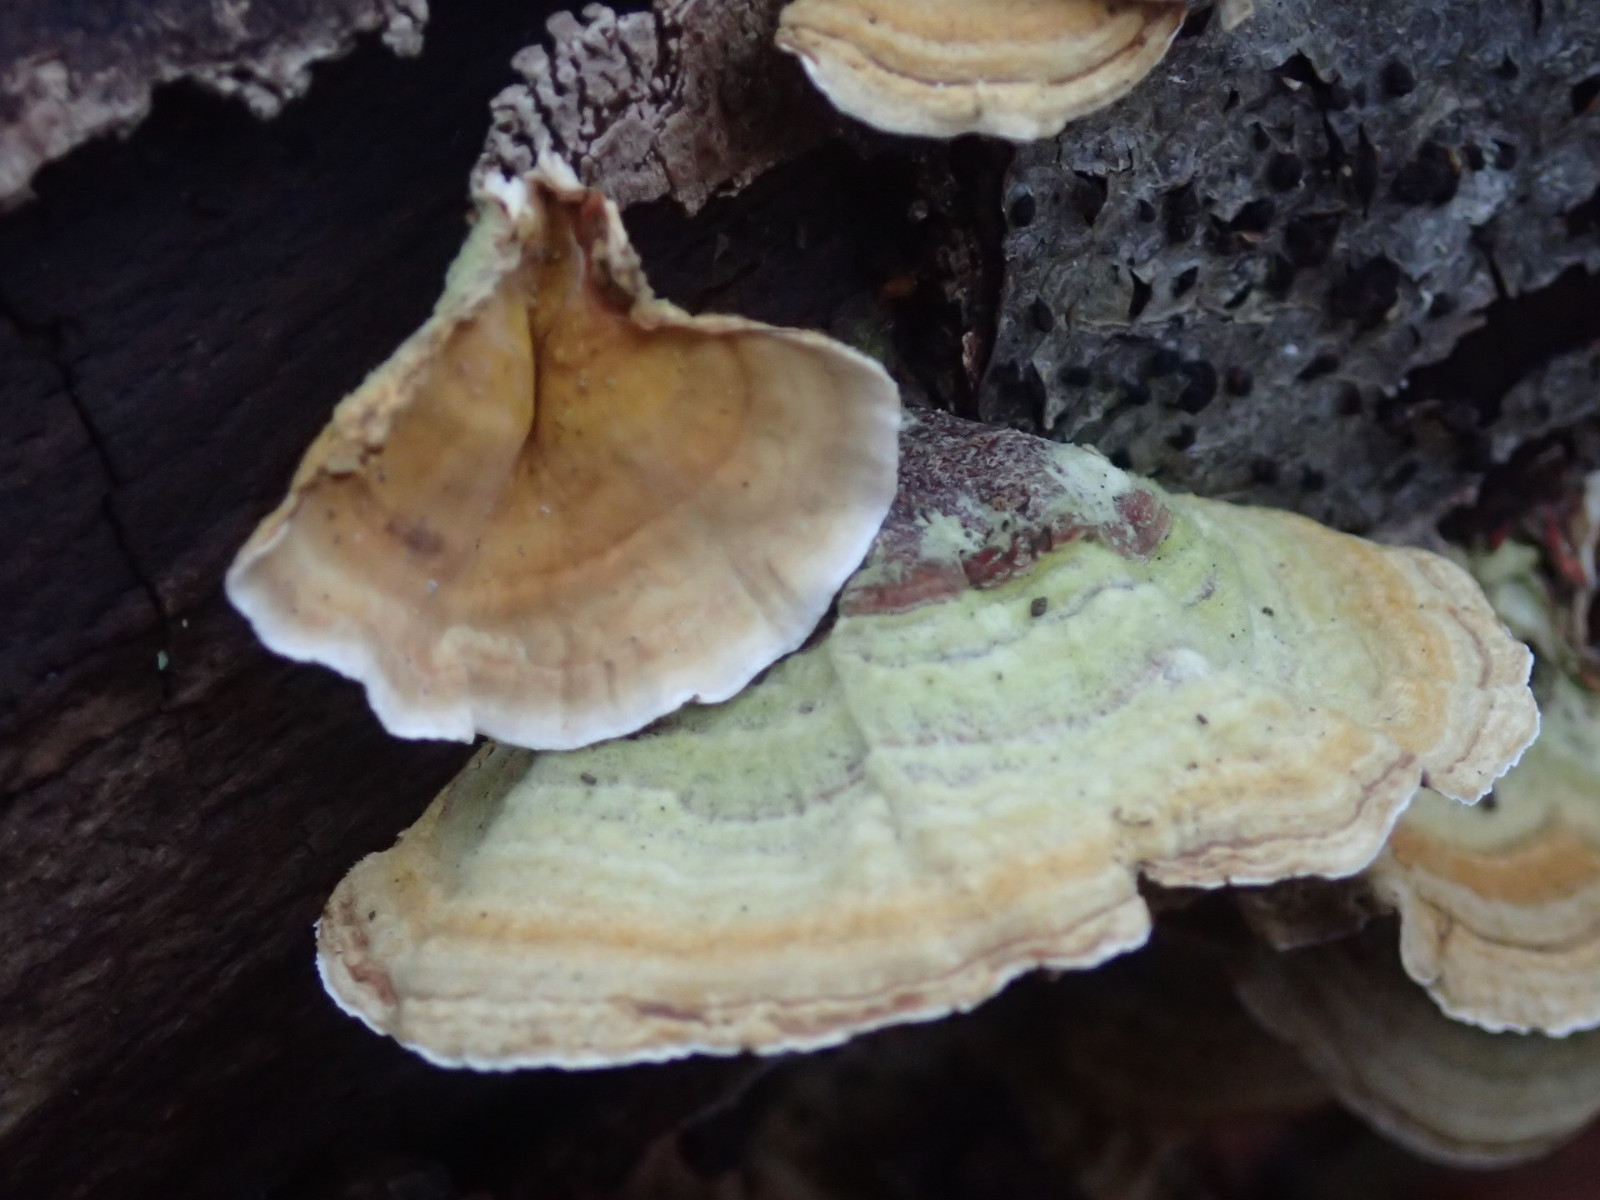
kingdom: Fungi
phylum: Basidiomycota
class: Agaricomycetes
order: Russulales
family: Stereaceae
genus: Stereum
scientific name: Stereum subtomentosum
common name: smuk lædersvamp
